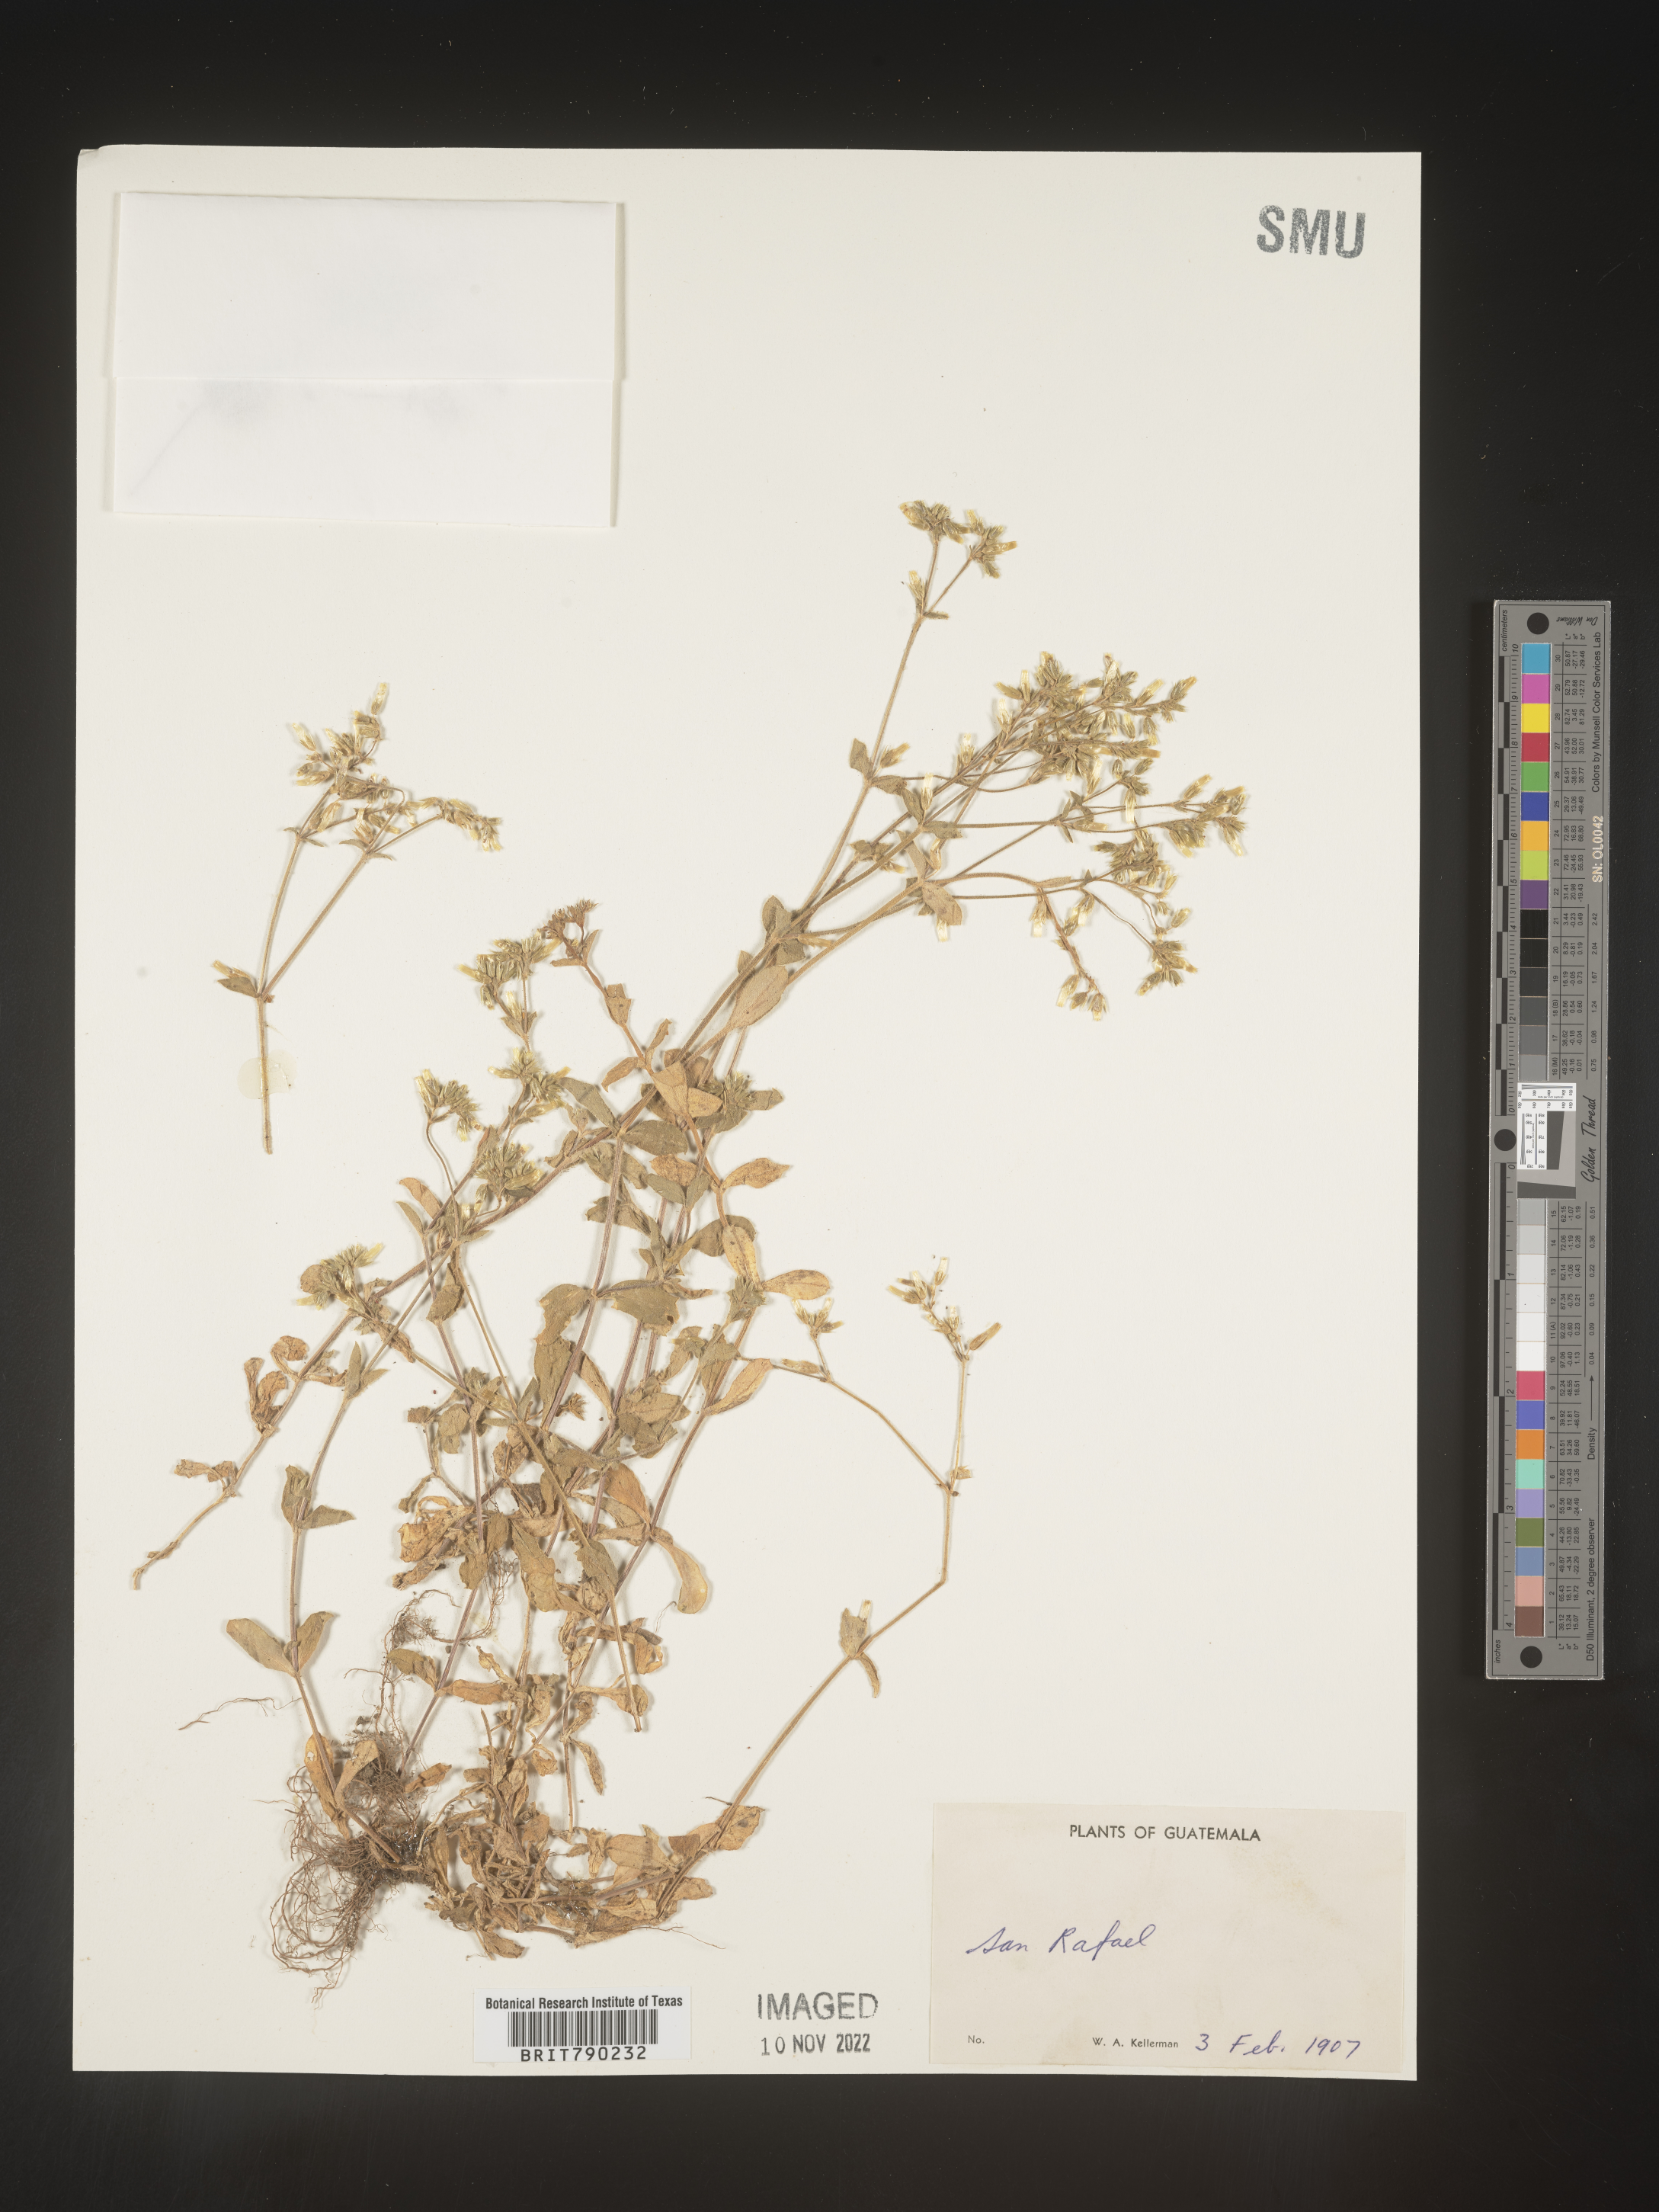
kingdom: Plantae
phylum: Tracheophyta
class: Magnoliopsida
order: Caryophyllales
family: Caryophyllaceae
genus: Cerastium
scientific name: Cerastium
